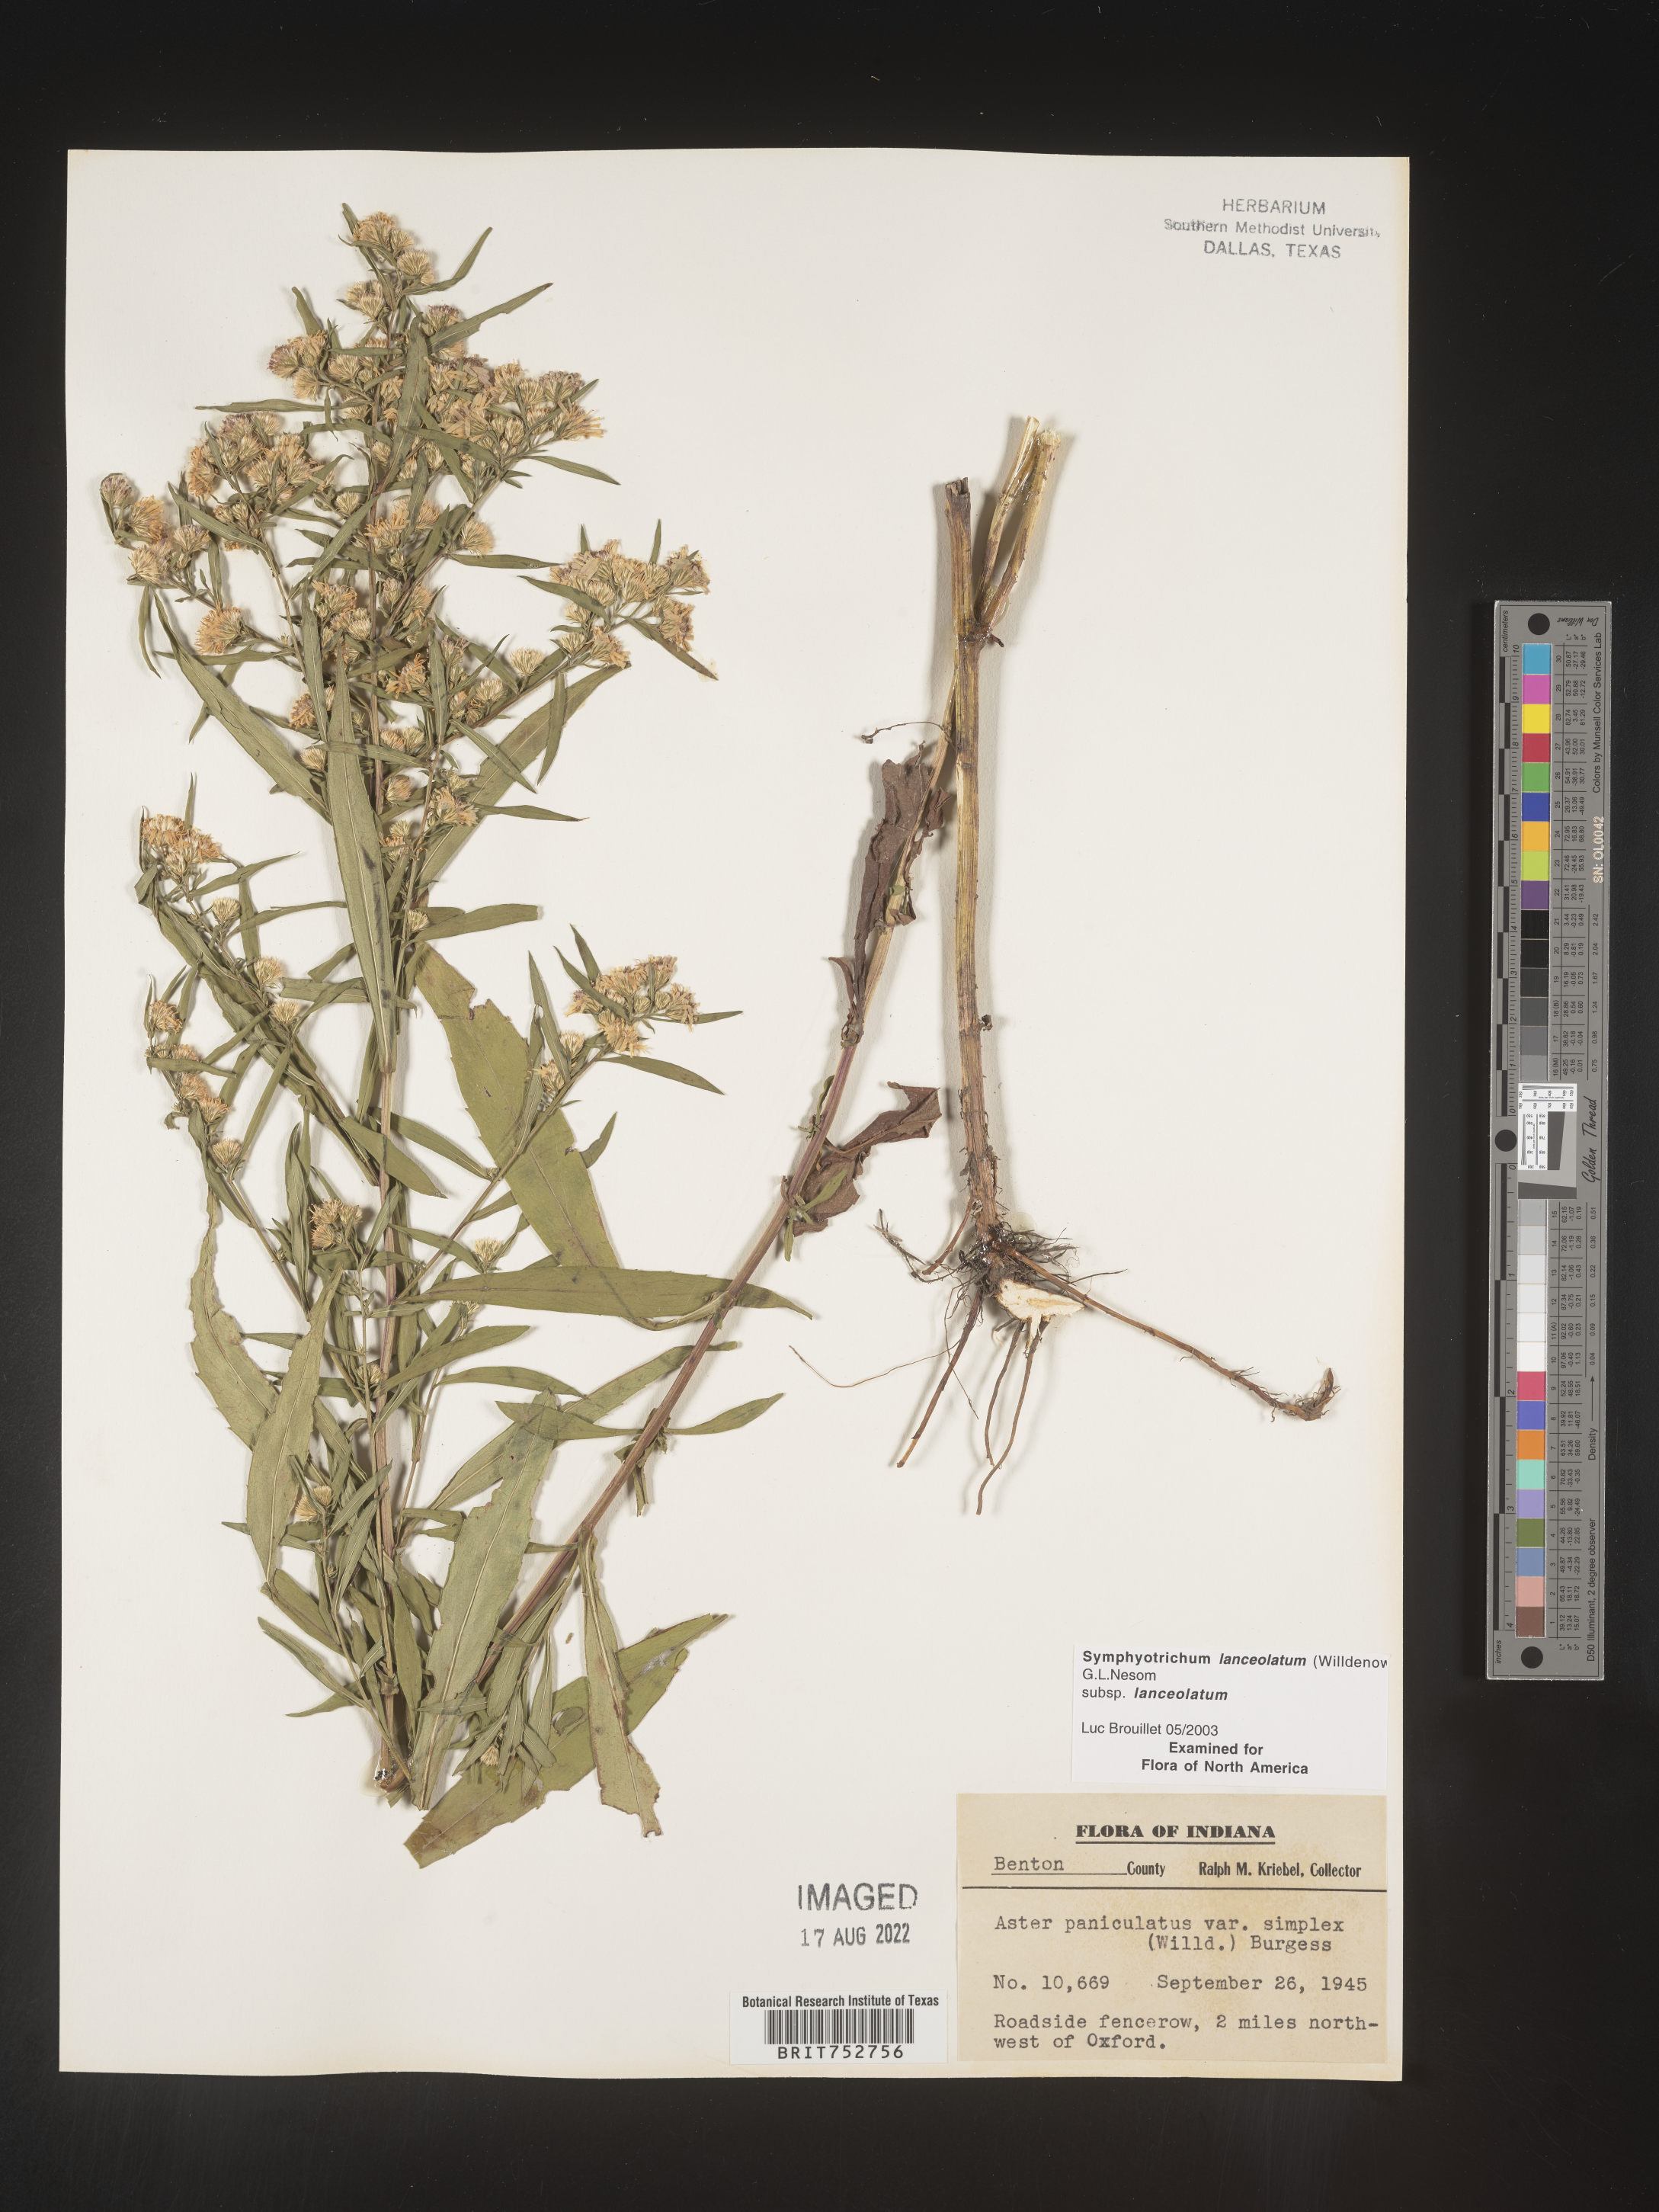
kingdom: Plantae
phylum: Tracheophyta
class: Magnoliopsida
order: Asterales
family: Asteraceae
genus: Symphyotrichum
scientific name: Symphyotrichum lanceolatum
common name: Panicled aster
